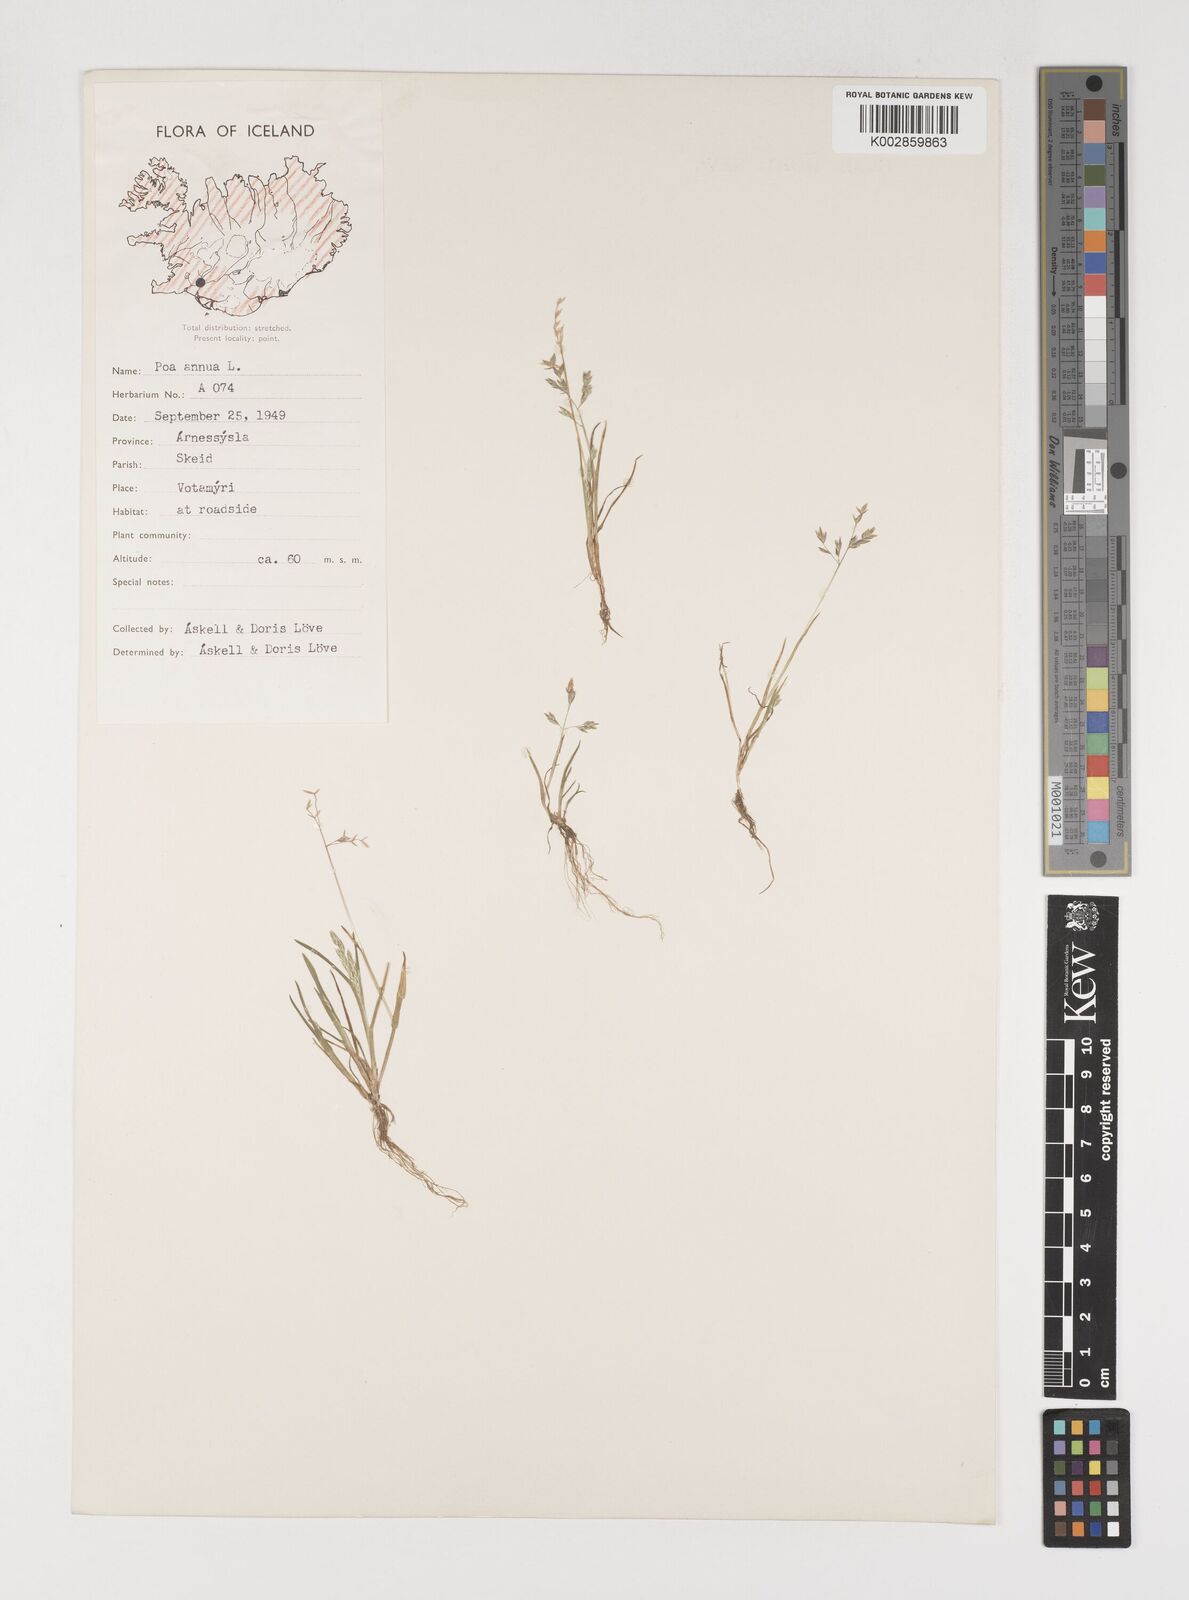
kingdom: Plantae
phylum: Tracheophyta
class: Liliopsida
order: Poales
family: Poaceae
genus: Poa
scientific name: Poa annua
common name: Annual bluegrass
